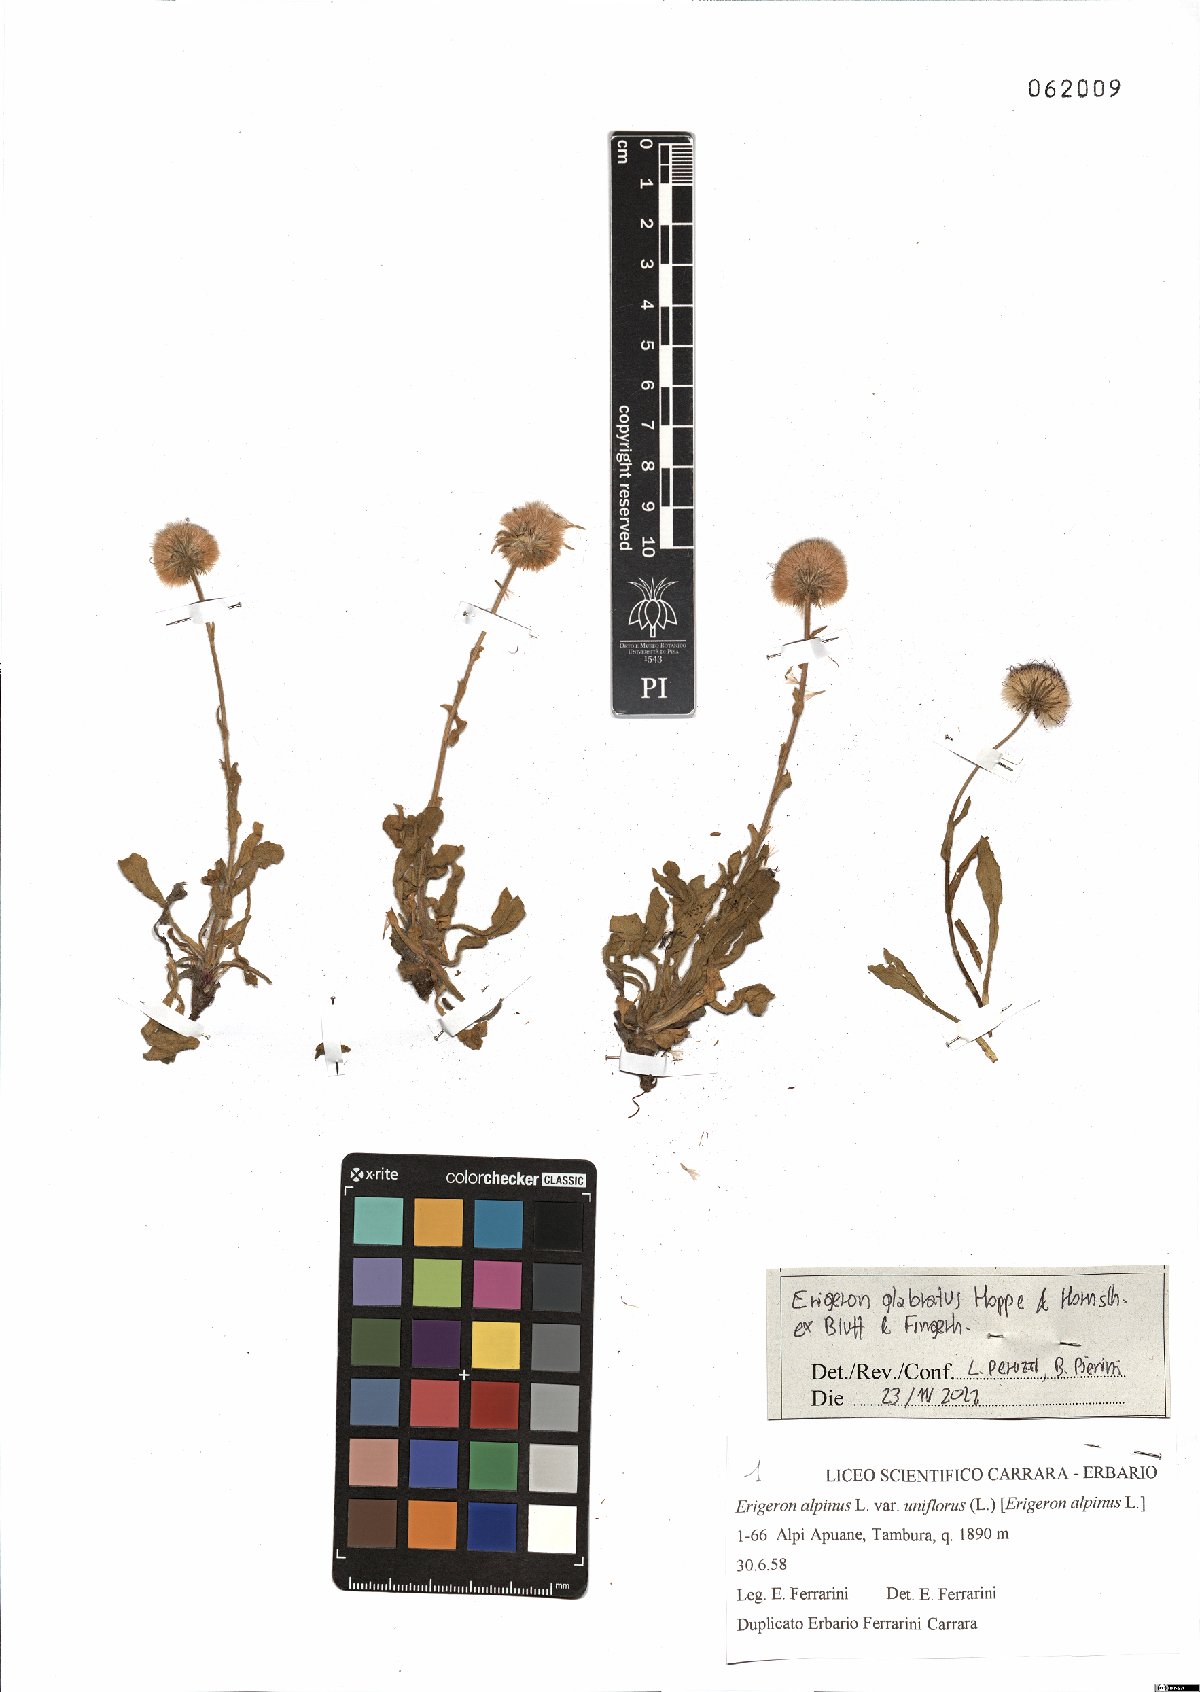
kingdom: Plantae
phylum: Tracheophyta
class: Magnoliopsida
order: Asterales
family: Asteraceae
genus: Erigeron
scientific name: Erigeron glabratus
